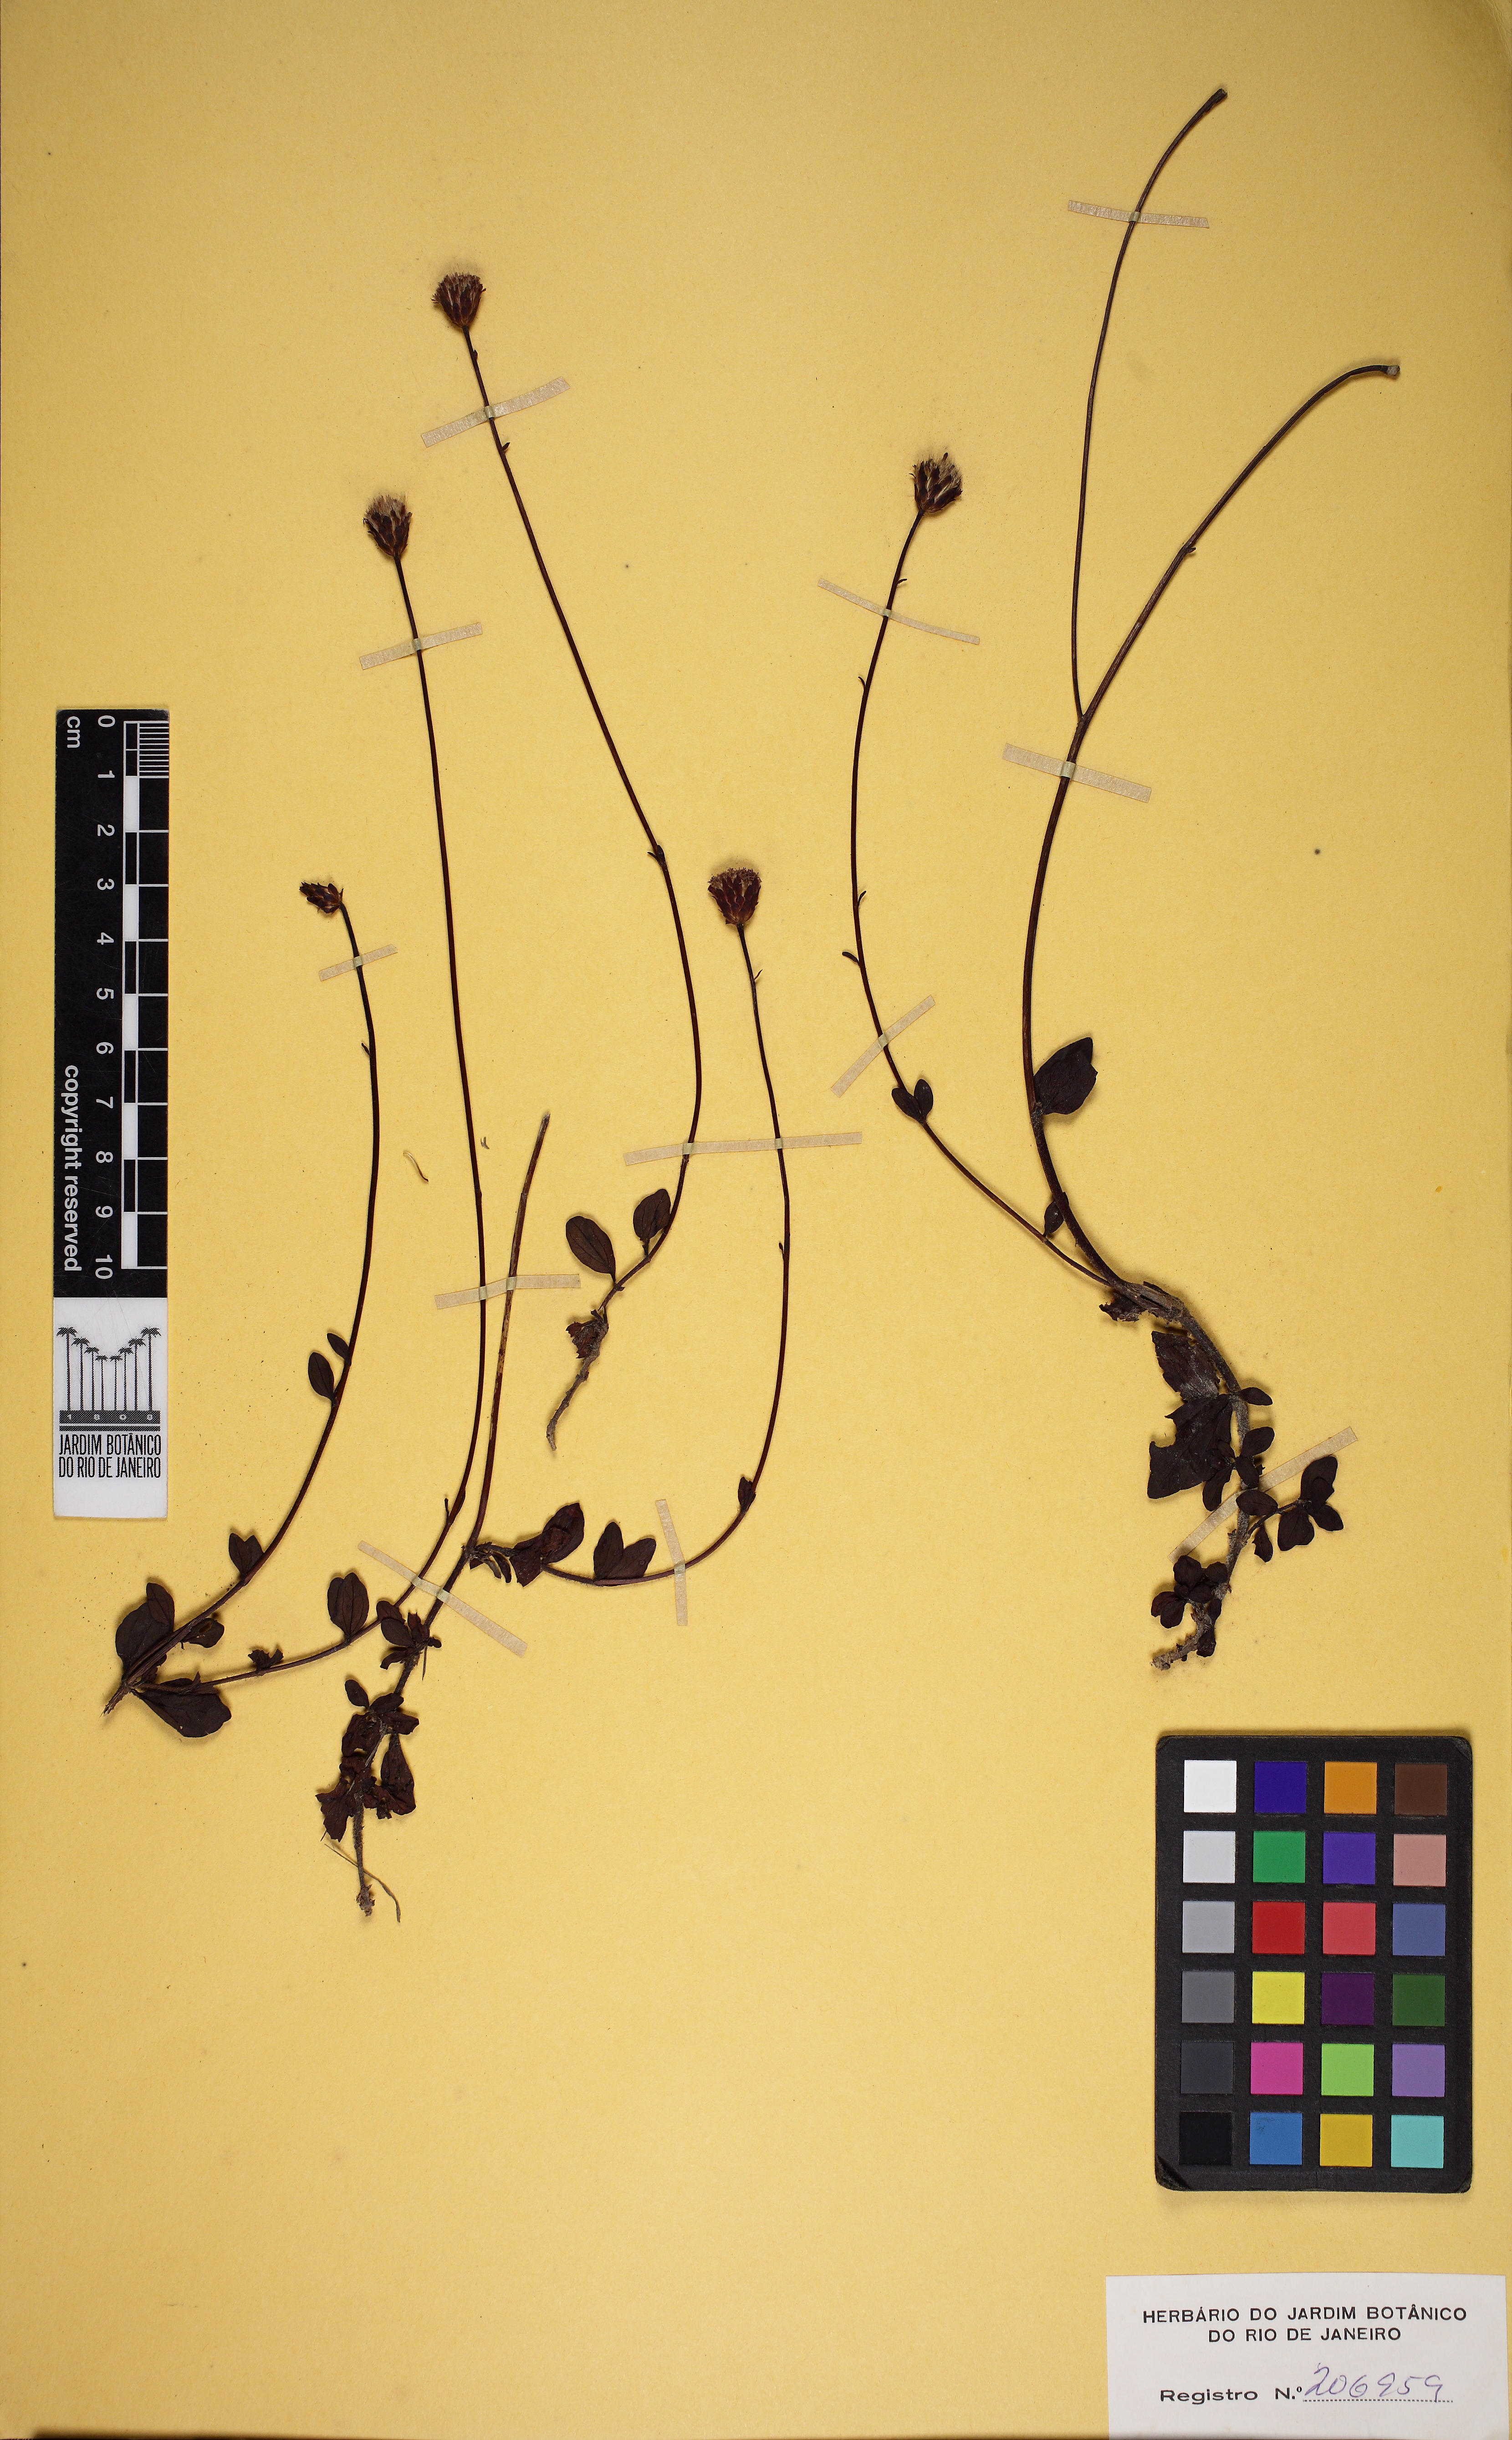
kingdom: Plantae
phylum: Tracheophyta
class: Magnoliopsida
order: Asterales
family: Asteraceae
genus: Praxelis
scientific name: Praxelis decumbens
